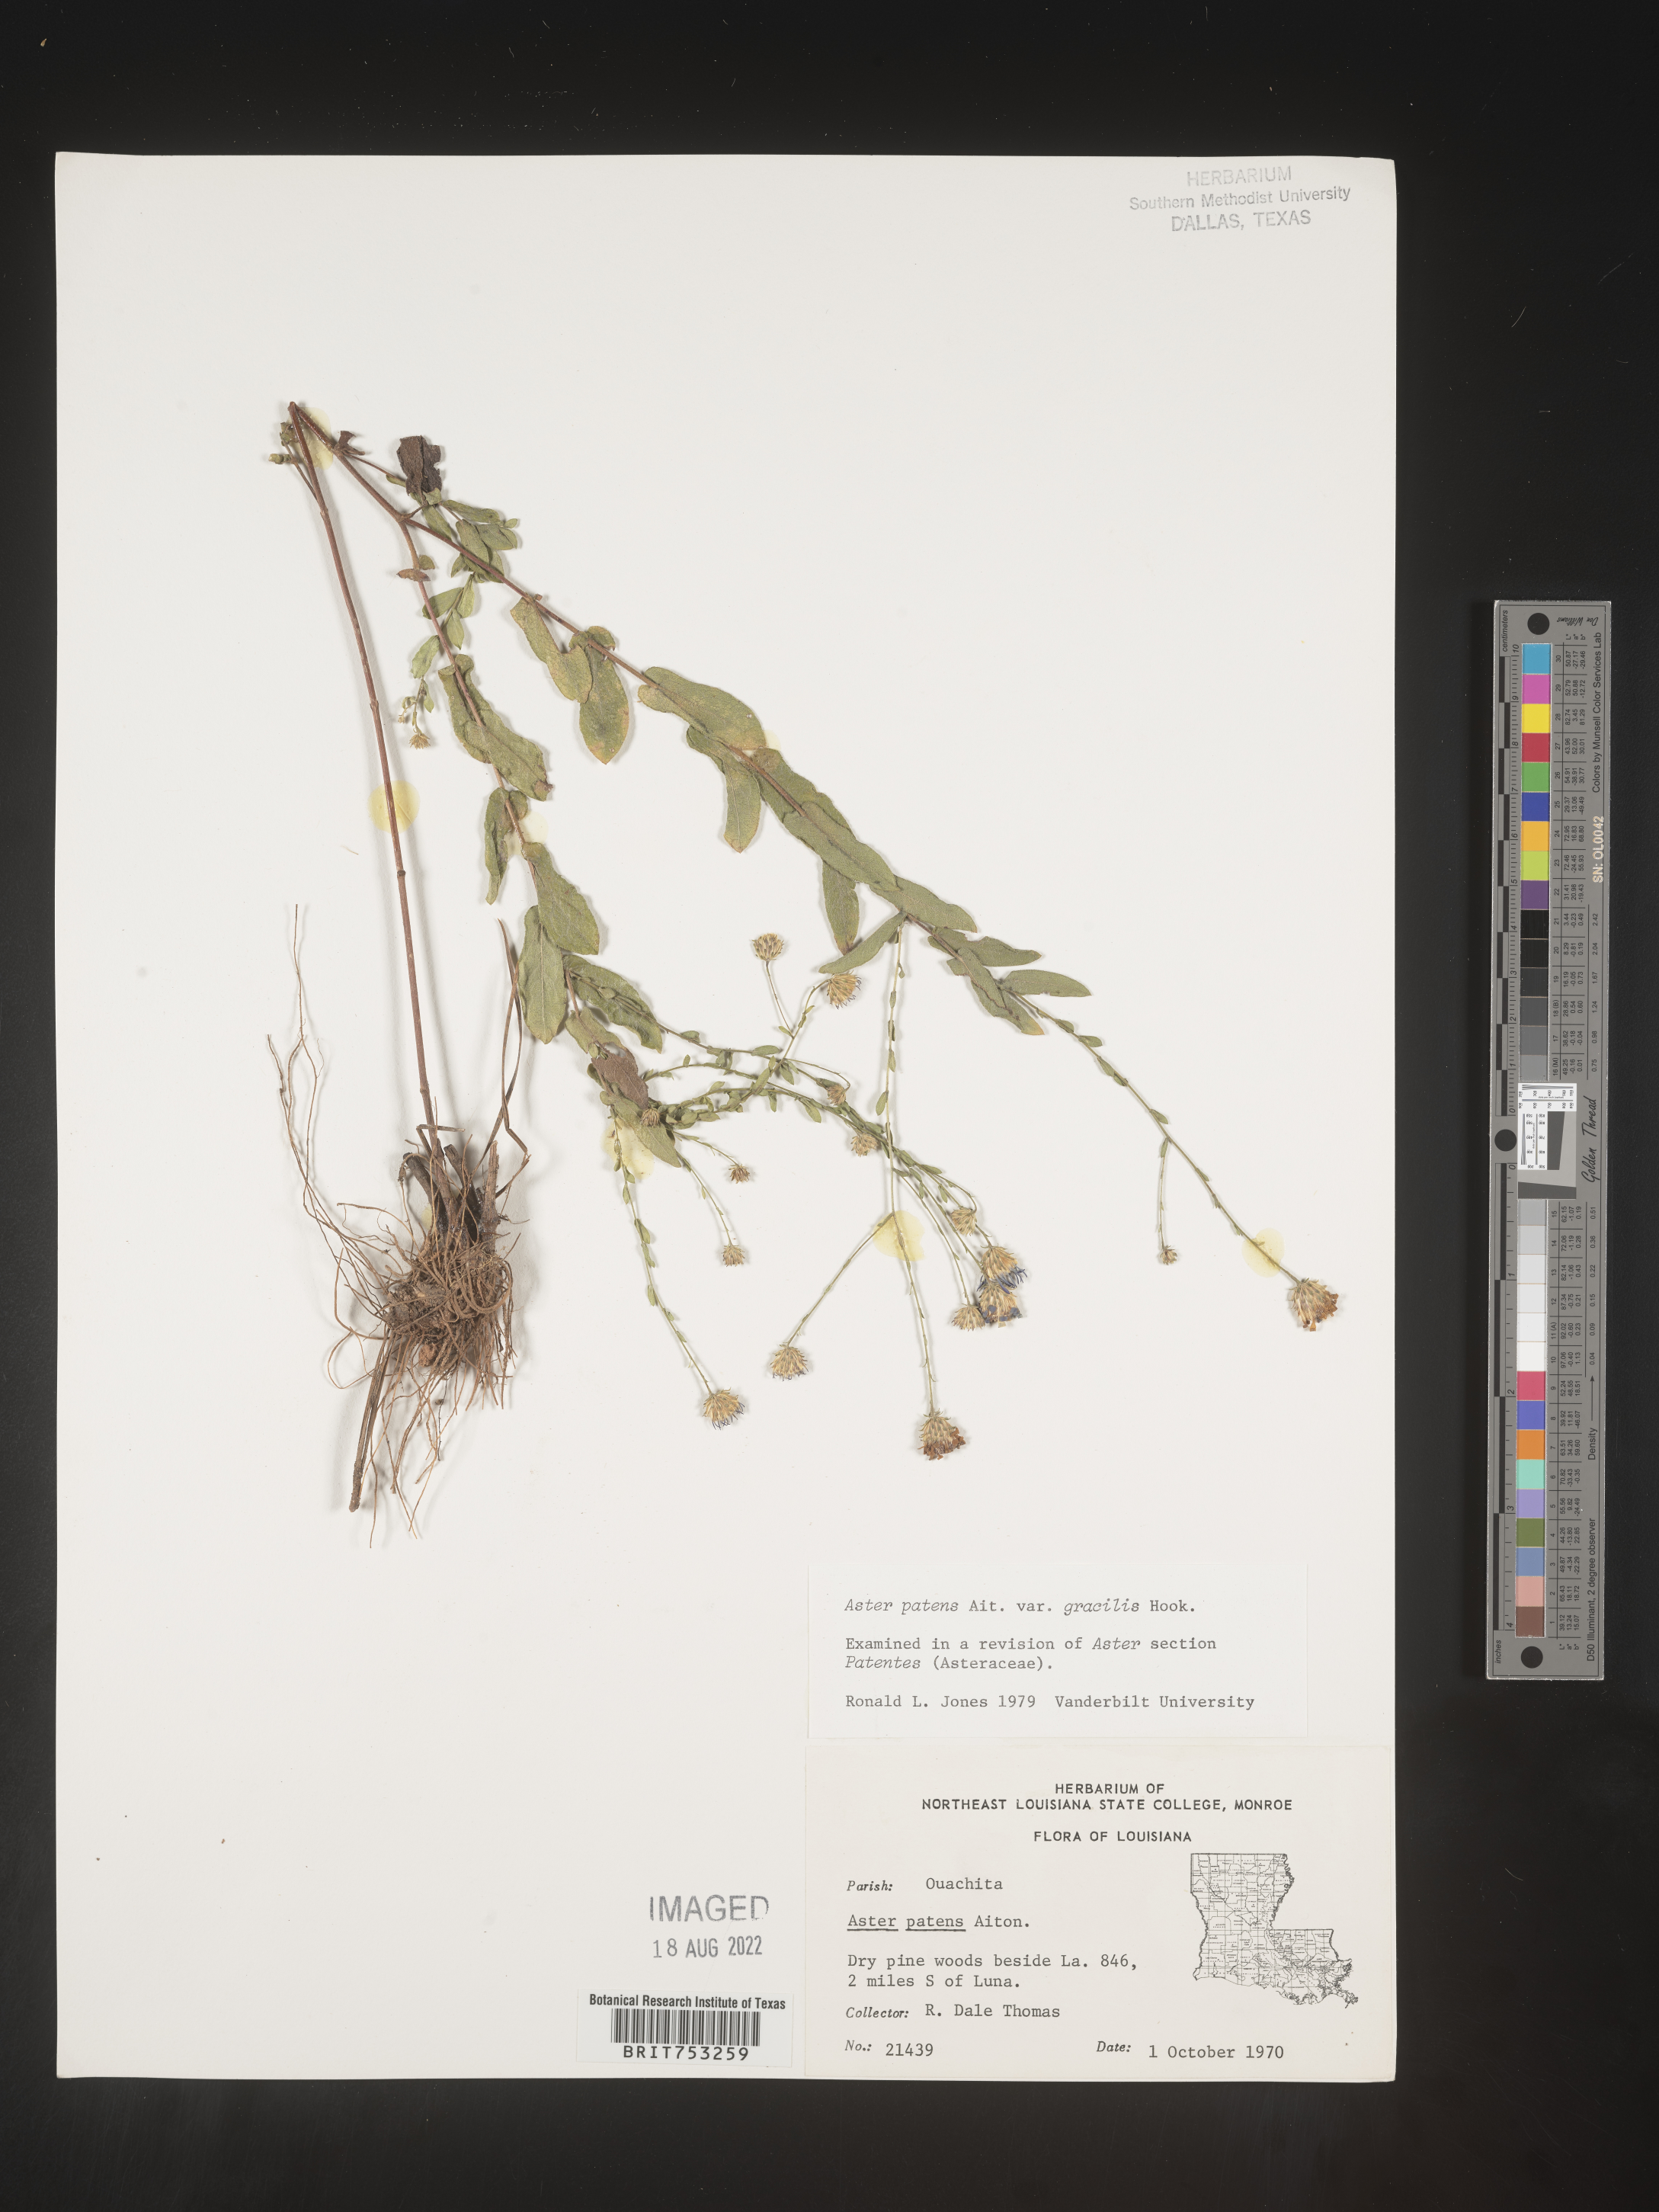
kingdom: Plantae
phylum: Tracheophyta
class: Magnoliopsida
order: Asterales
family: Asteraceae
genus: Symphyotrichum
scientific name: Symphyotrichum patens
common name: Late purple aster
